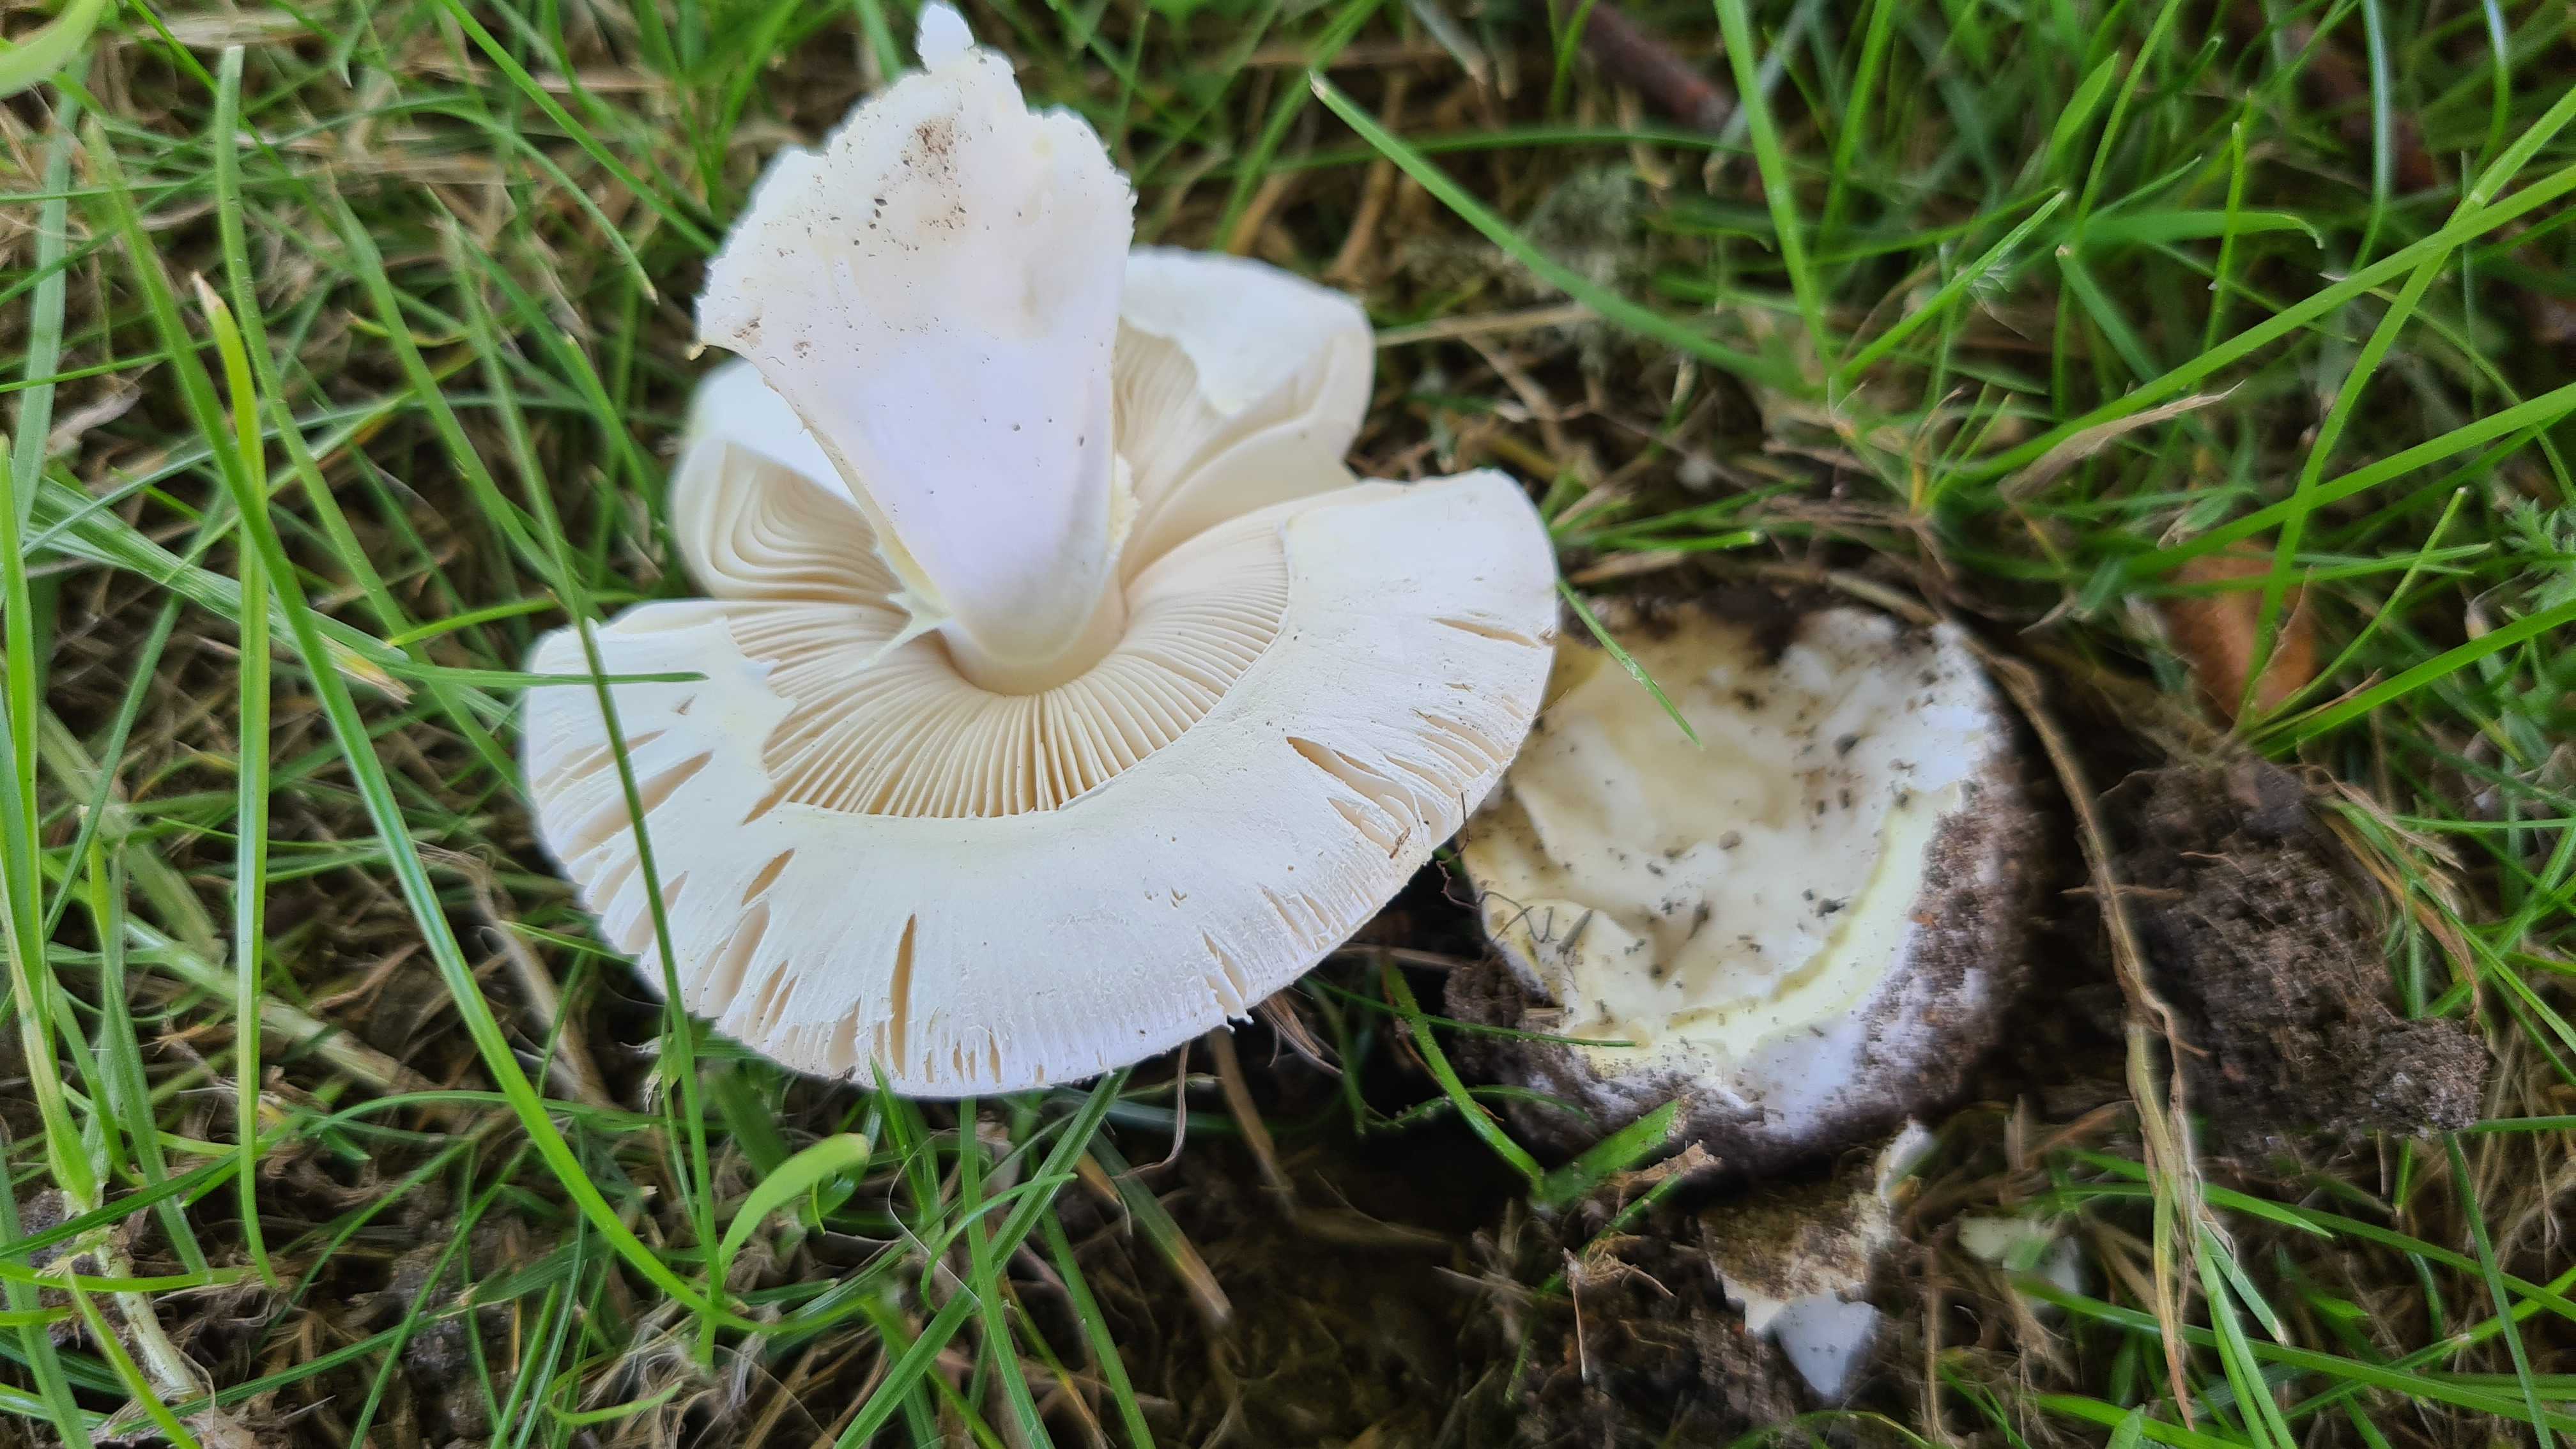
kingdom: Fungi
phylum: Basidiomycota
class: Agaricomycetes
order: Agaricales
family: Amanitaceae
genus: Amanita
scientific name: Amanita phalloides
